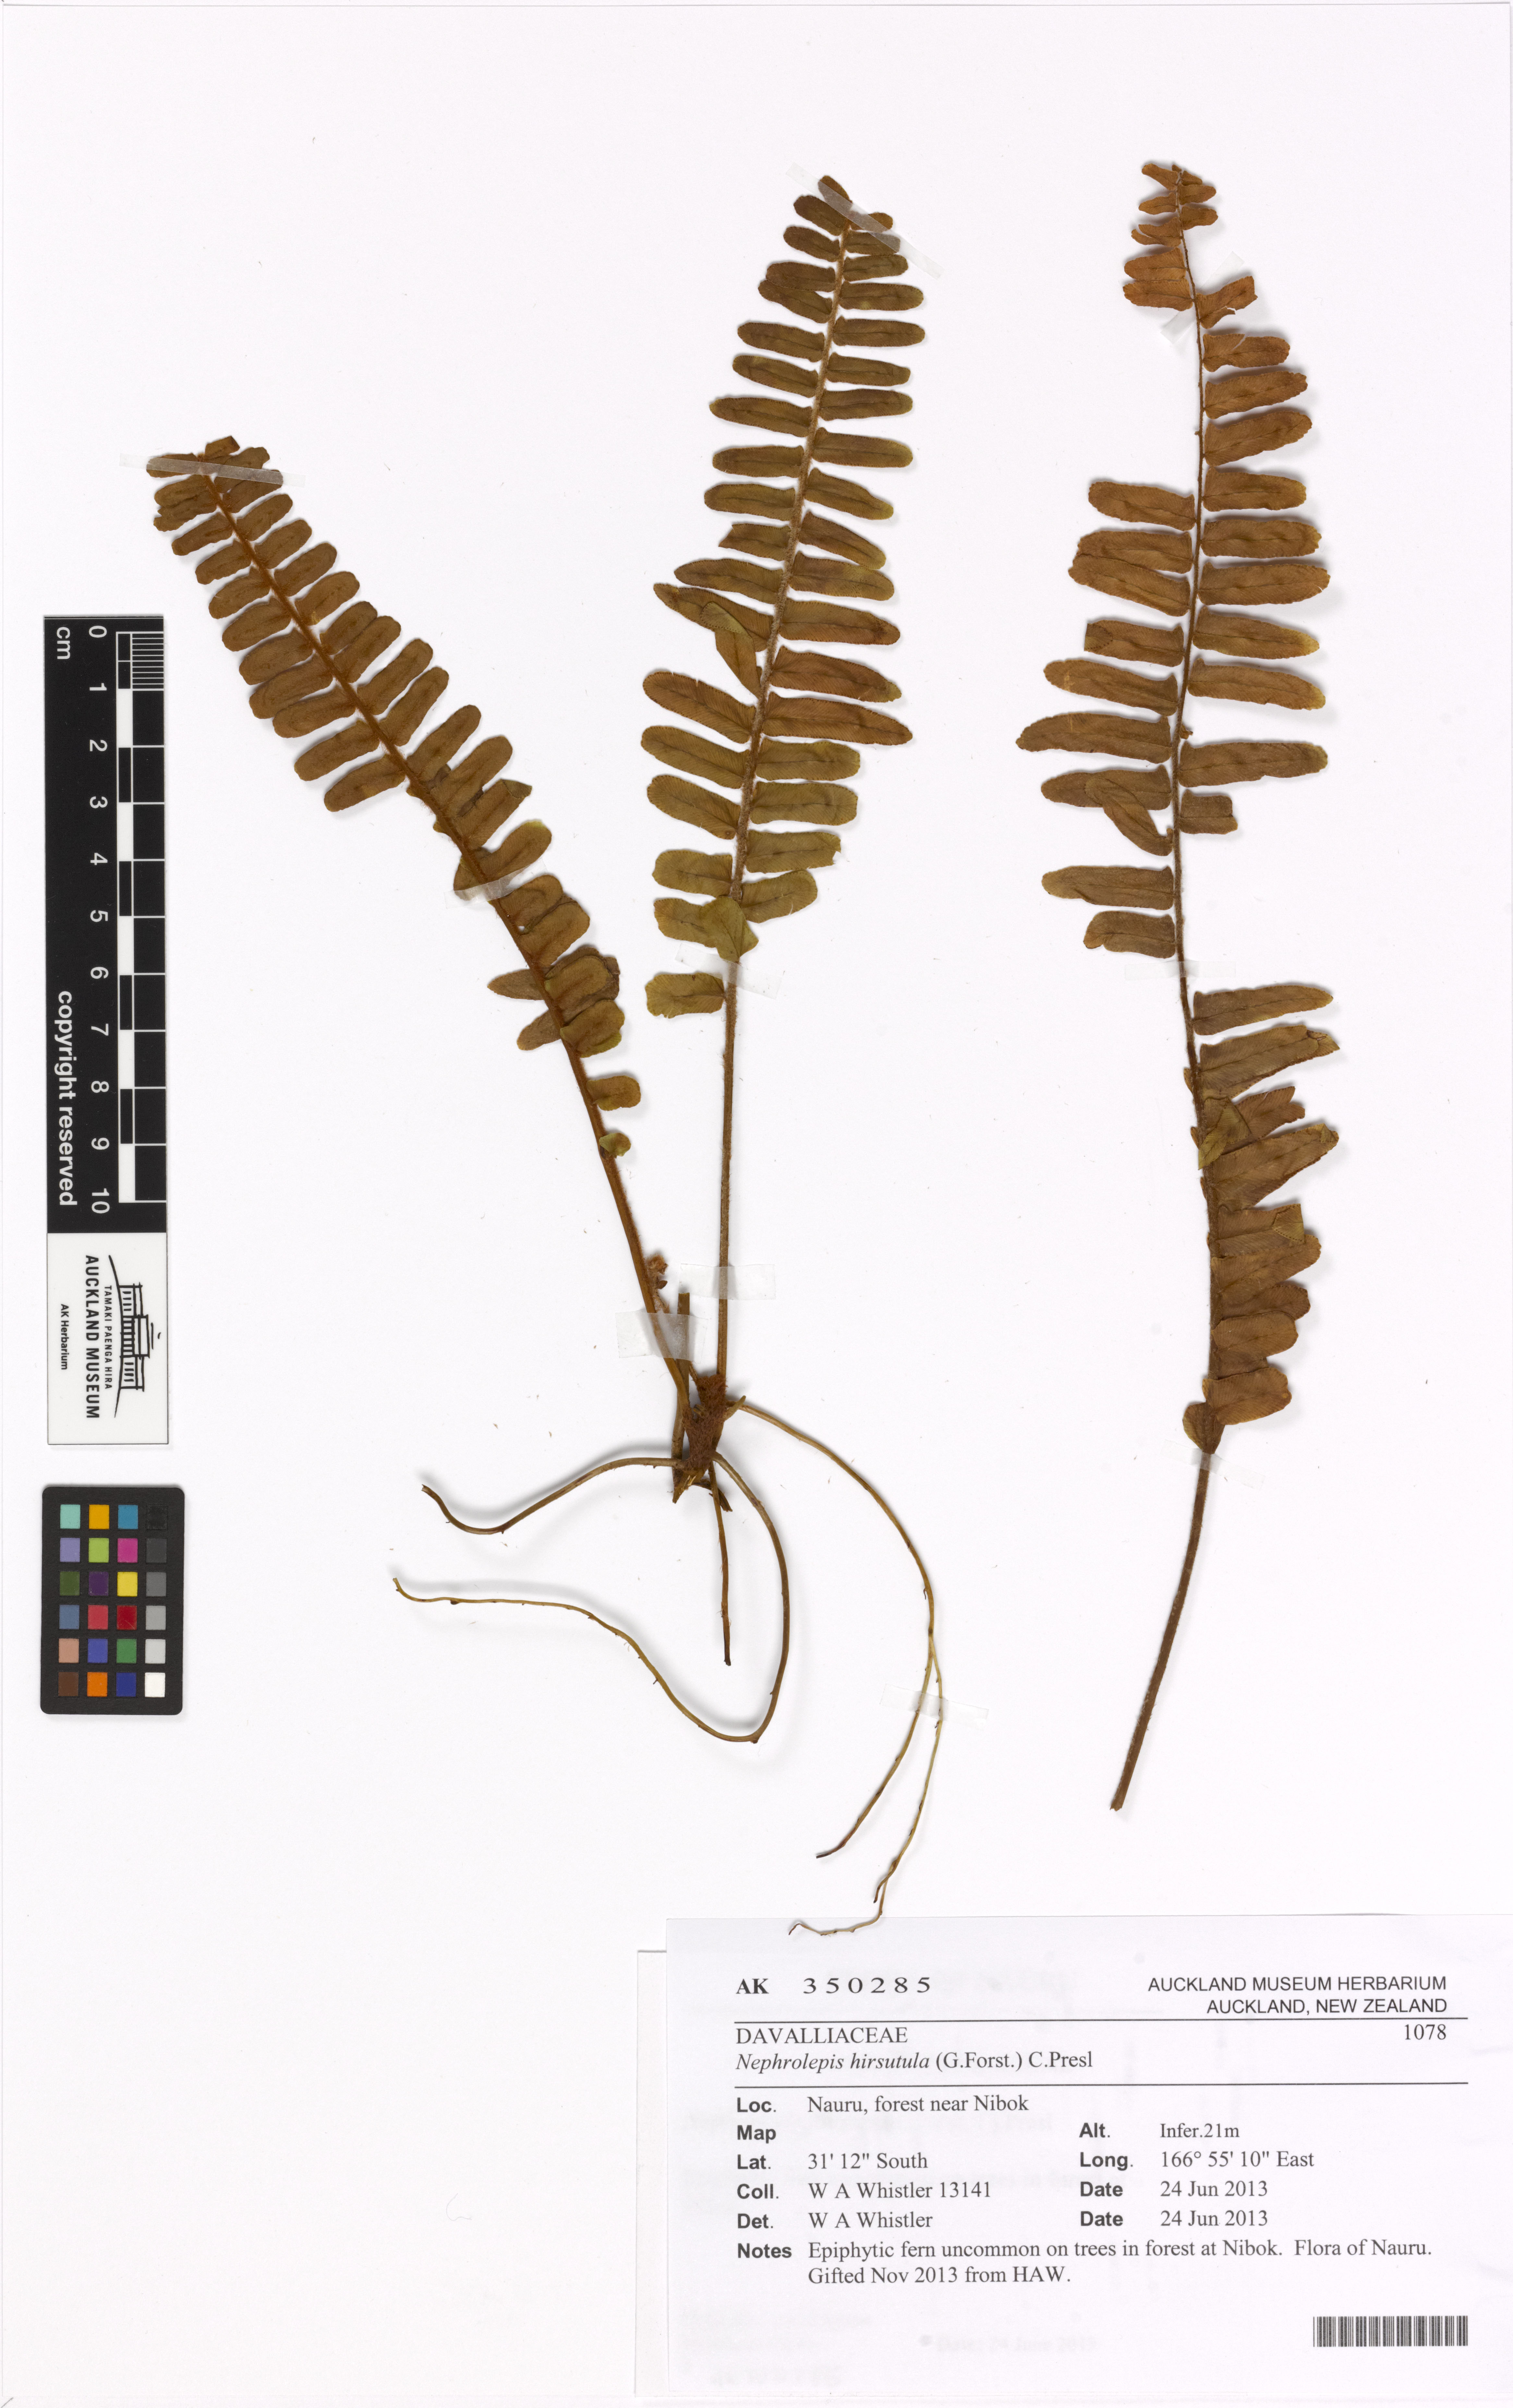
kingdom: Plantae
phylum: Tracheophyta
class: Polypodiopsida
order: Polypodiales
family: Nephrolepidaceae
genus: Nephrolepis
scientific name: Nephrolepis hirsutula
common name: Asian sword fern
